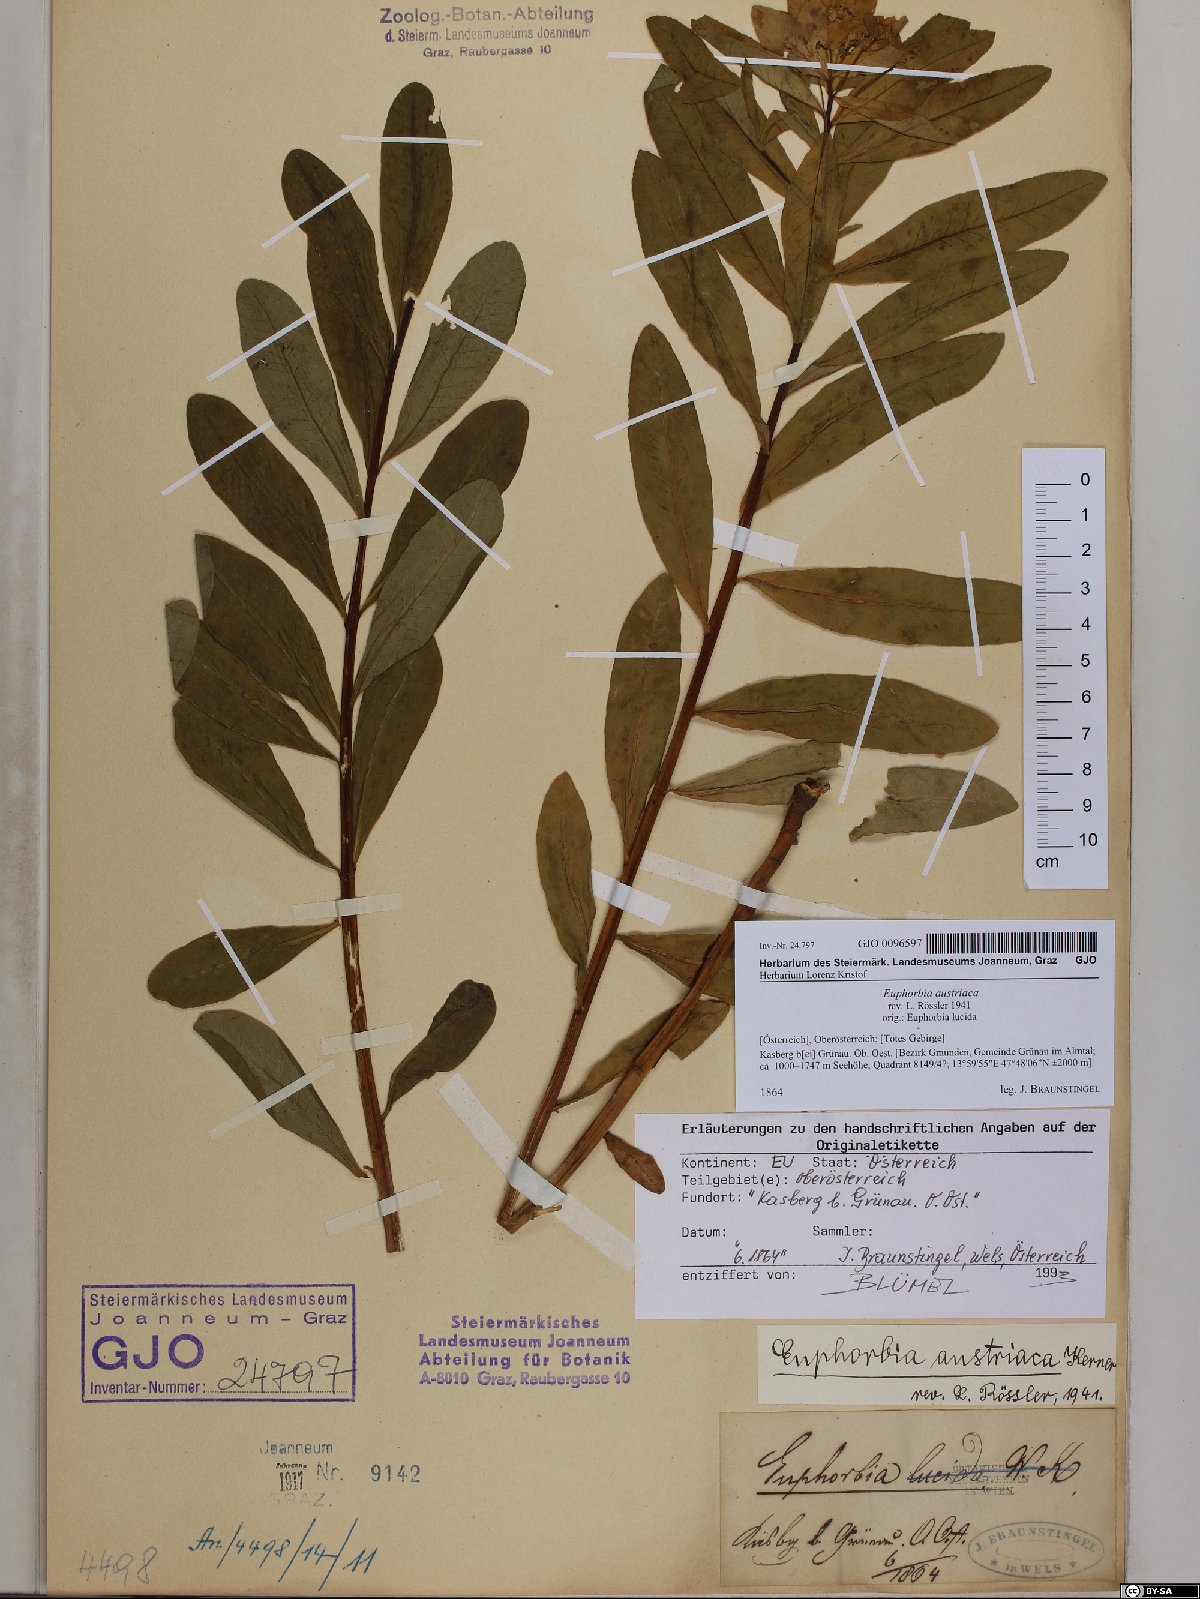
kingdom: Plantae
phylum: Tracheophyta
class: Magnoliopsida
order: Malpighiales
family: Euphorbiaceae
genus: Euphorbia
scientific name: Euphorbia austriaca
